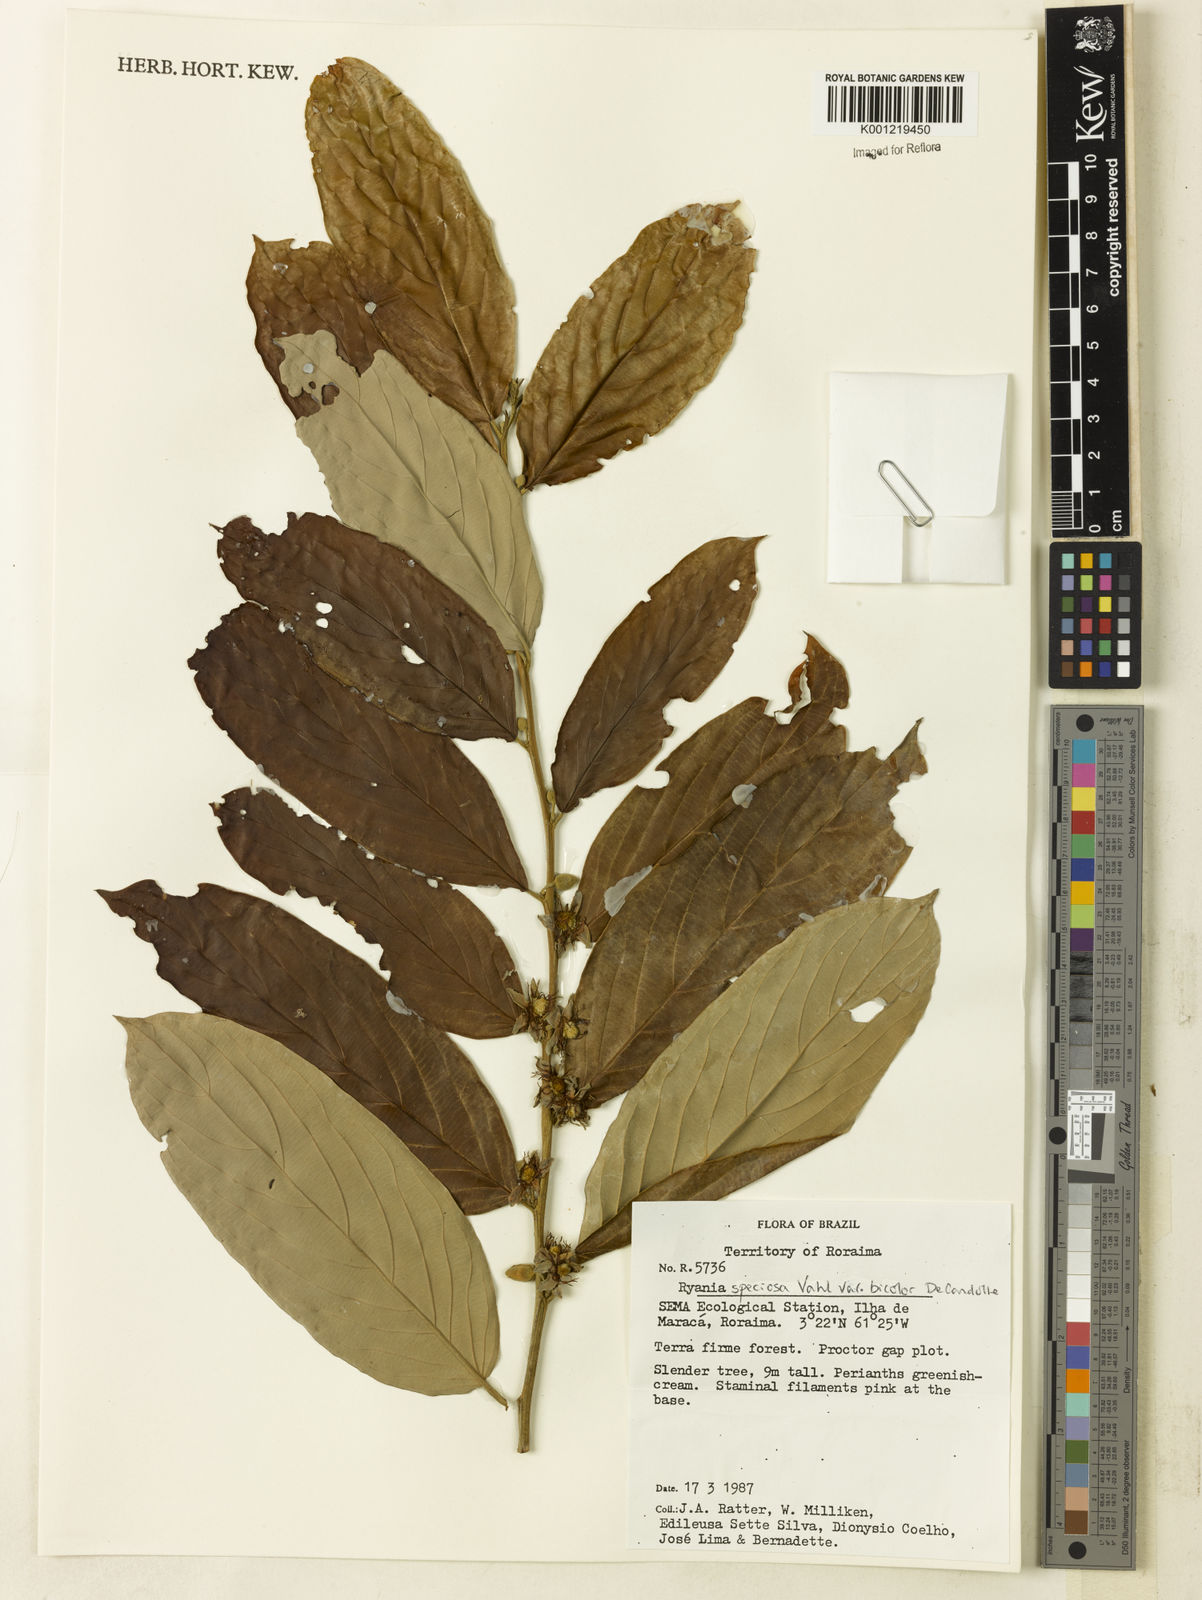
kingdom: Plantae
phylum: Tracheophyta
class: Magnoliopsida
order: Malpighiales
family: Salicaceae
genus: Ryania
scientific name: Ryania speciosa
